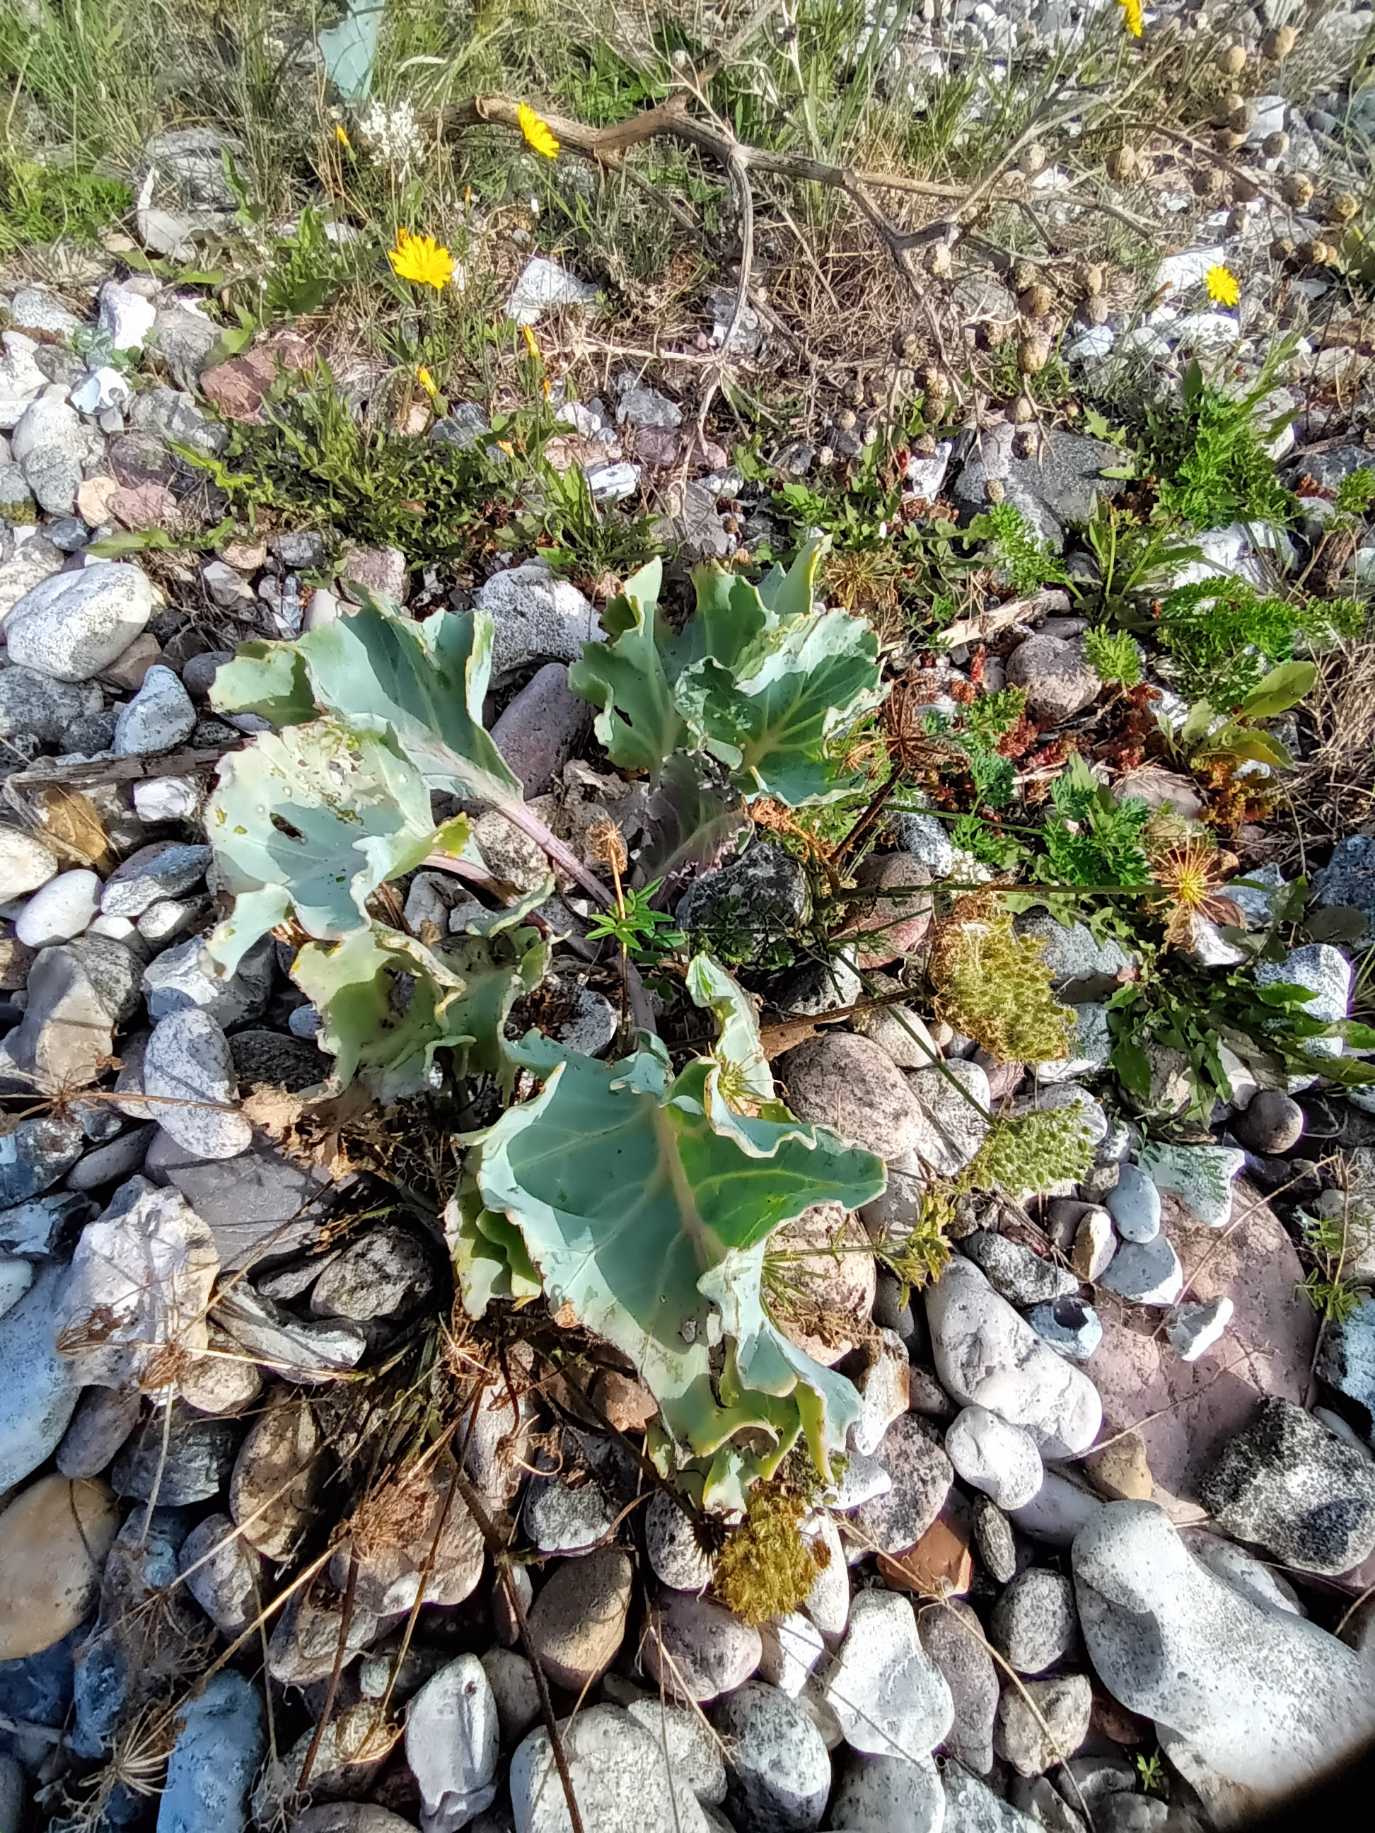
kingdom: Plantae
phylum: Tracheophyta
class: Magnoliopsida
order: Brassicales
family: Brassicaceae
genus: Crambe
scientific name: Crambe maritima
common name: Strandkål
